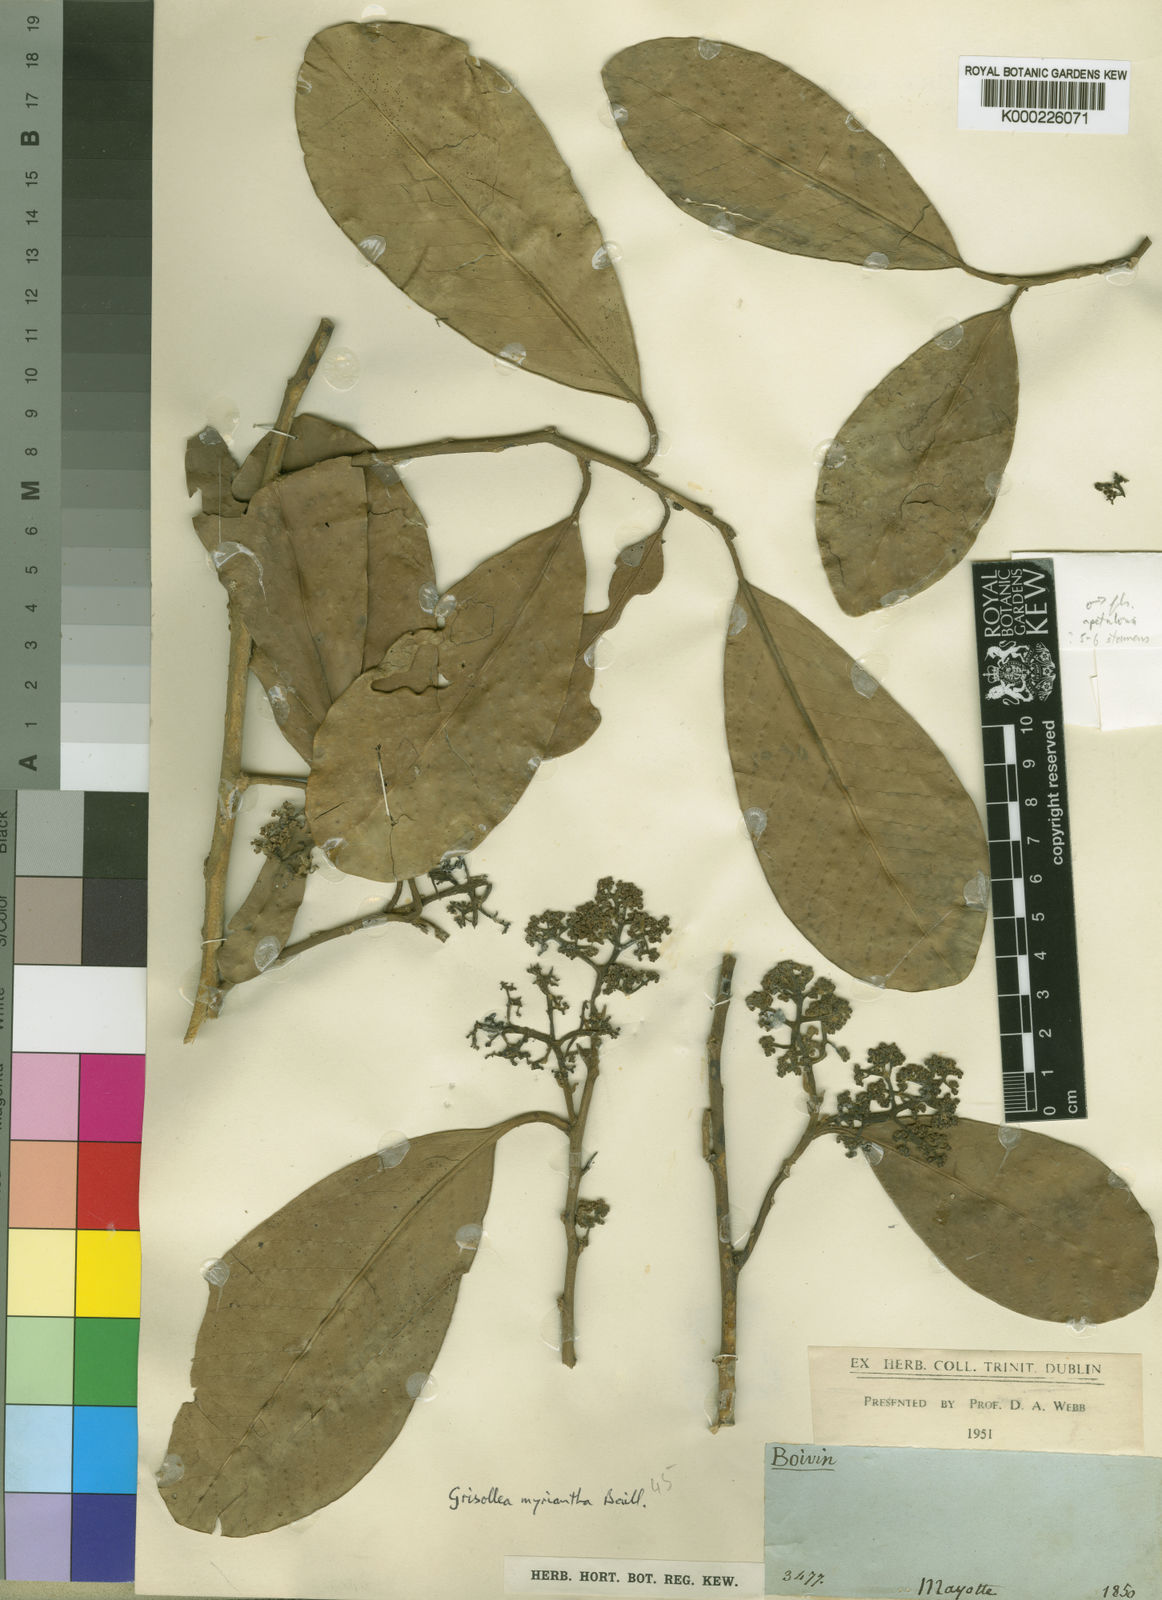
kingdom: Plantae
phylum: Tracheophyta
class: Magnoliopsida
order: Cardiopteridales
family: Stemonuraceae
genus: Grisollea
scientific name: Grisollea myriantha
